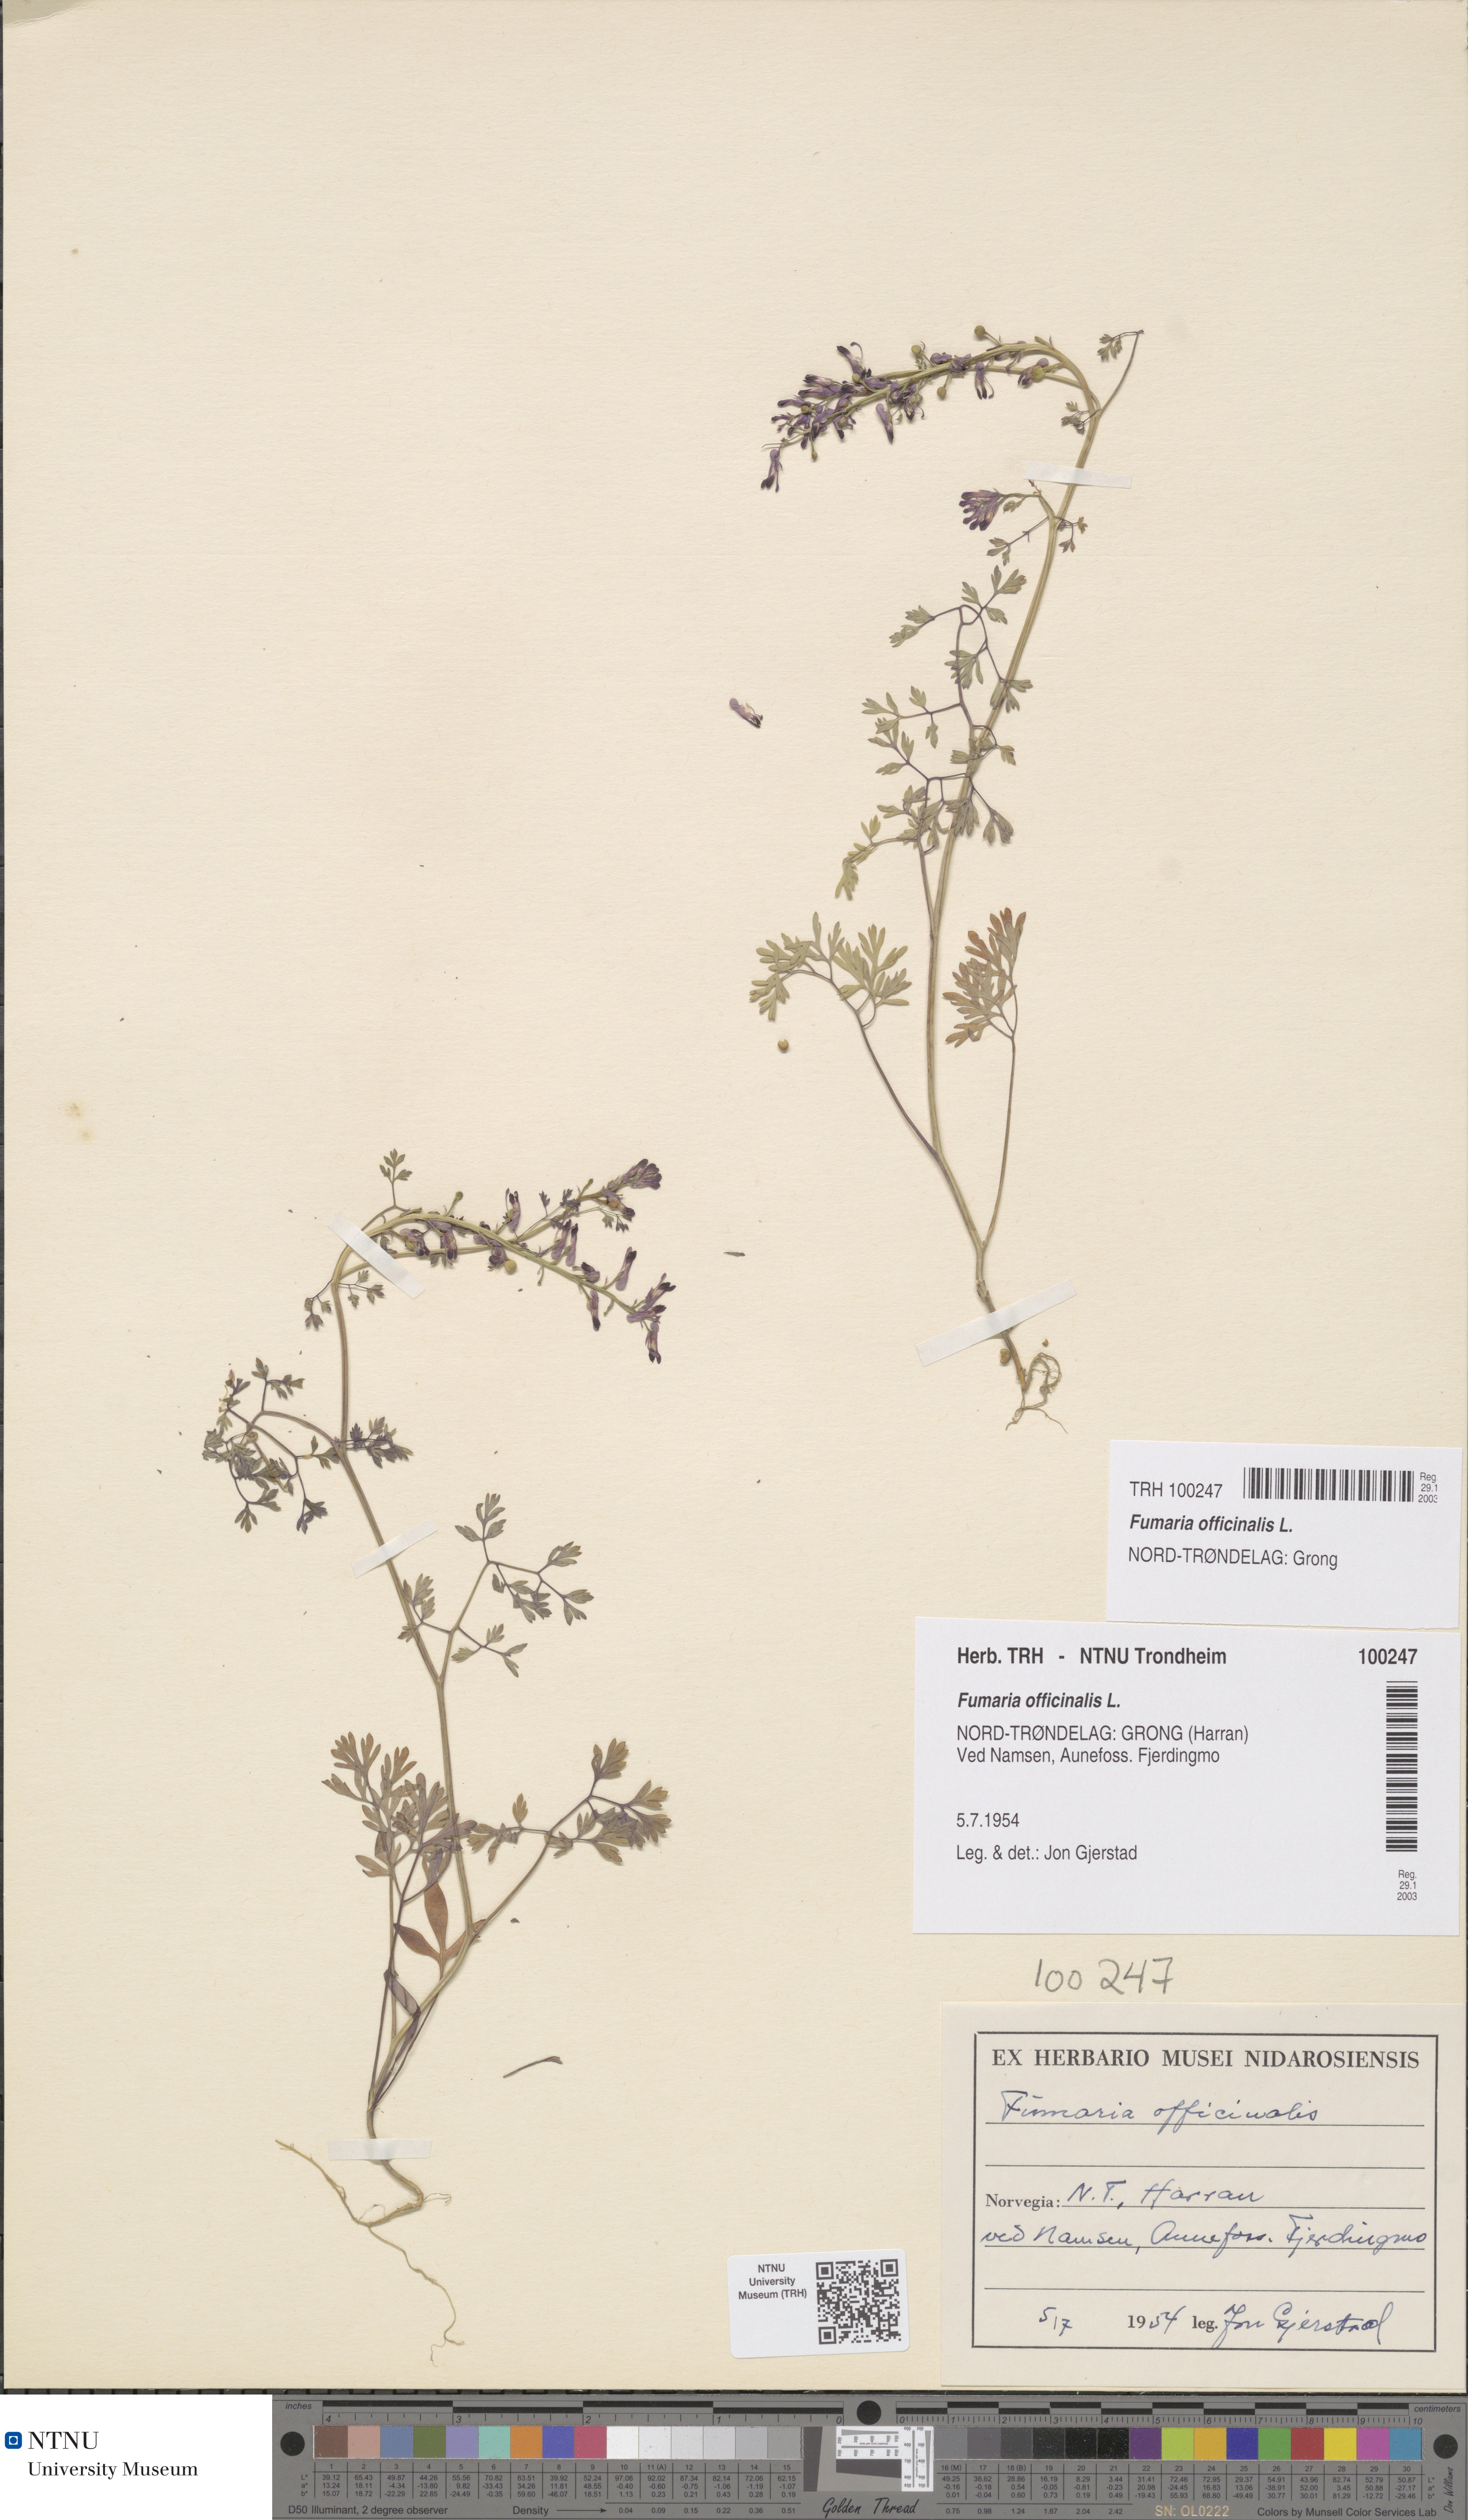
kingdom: Plantae
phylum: Tracheophyta
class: Magnoliopsida
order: Ranunculales
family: Papaveraceae
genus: Fumaria
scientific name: Fumaria officinalis
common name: Common fumitory
